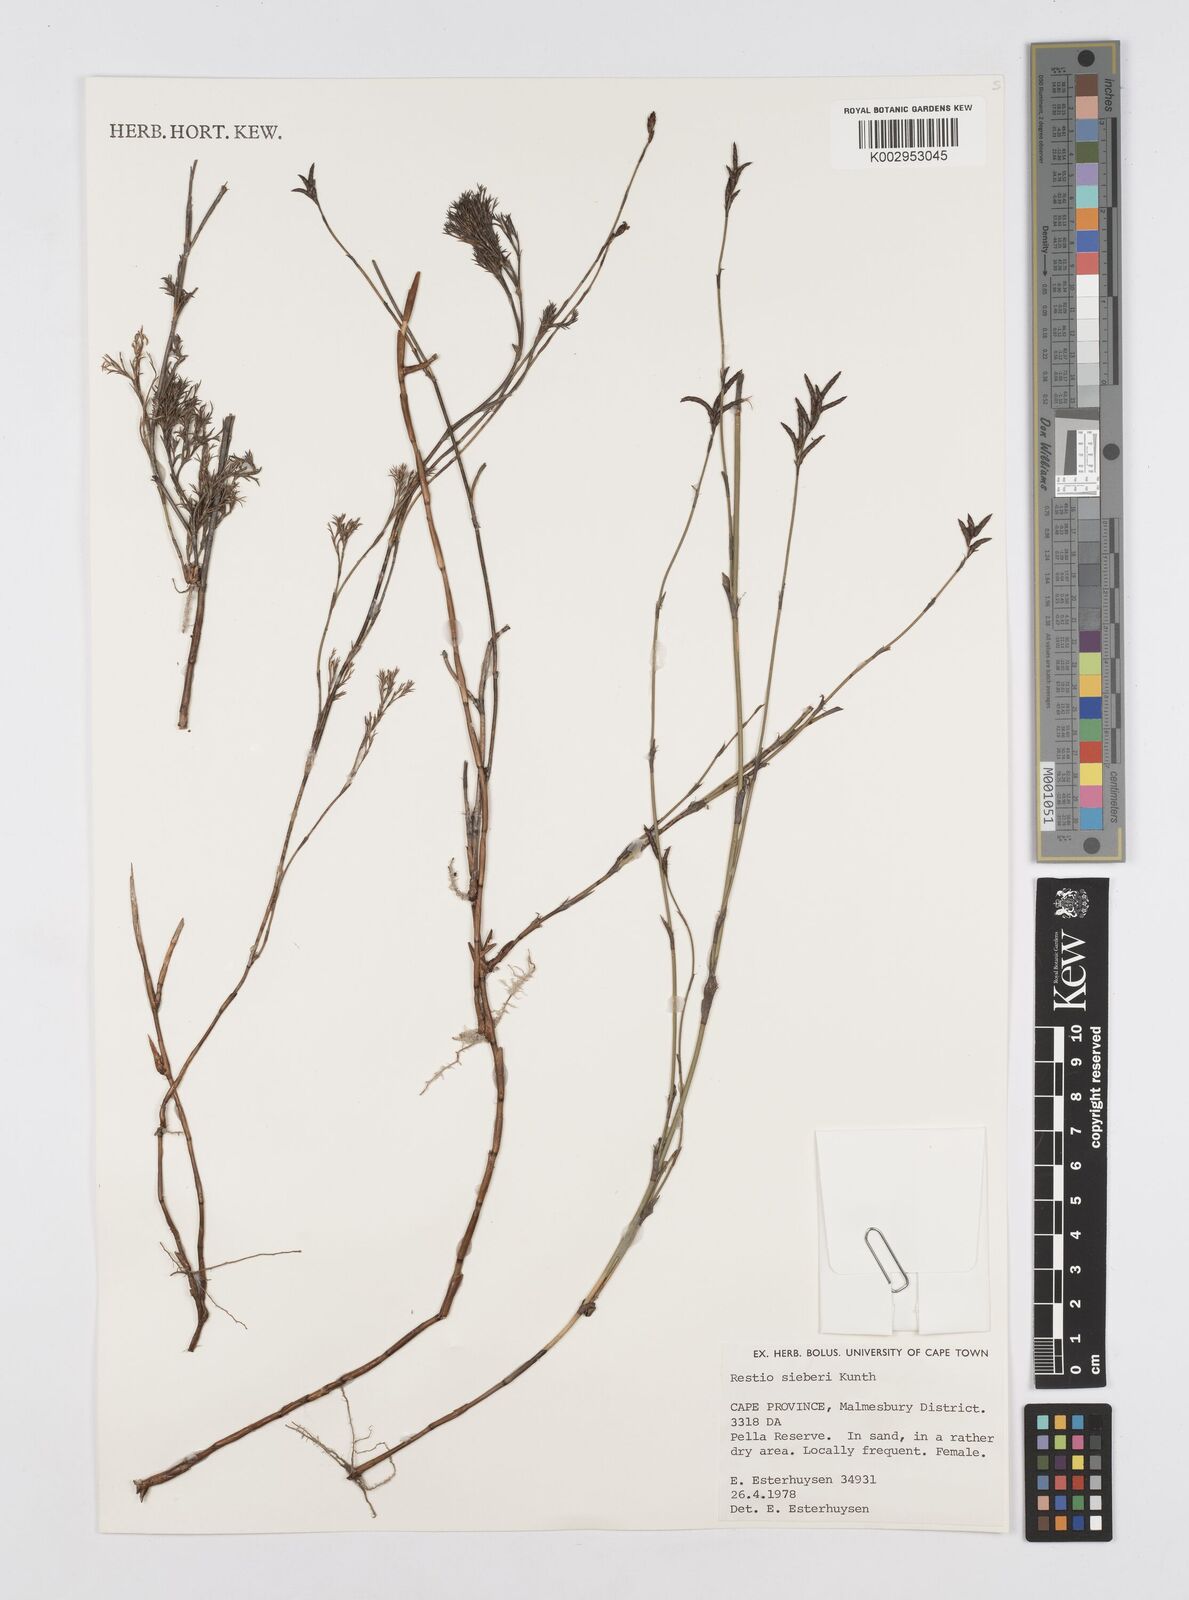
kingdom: Plantae
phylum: Tracheophyta
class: Liliopsida
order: Poales
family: Restionaceae
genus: Restio
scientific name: Restio sieberi
